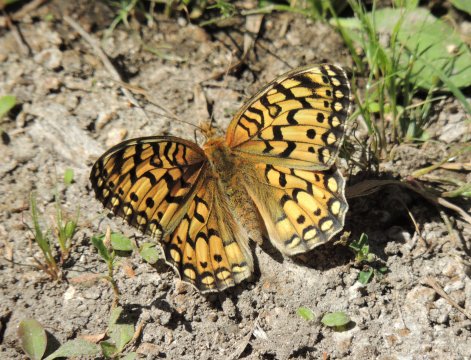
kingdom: Animalia
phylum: Arthropoda
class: Insecta
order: Lepidoptera
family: Nymphalidae
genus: Speyeria
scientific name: Speyeria callippe
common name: Callippe Fritillary
